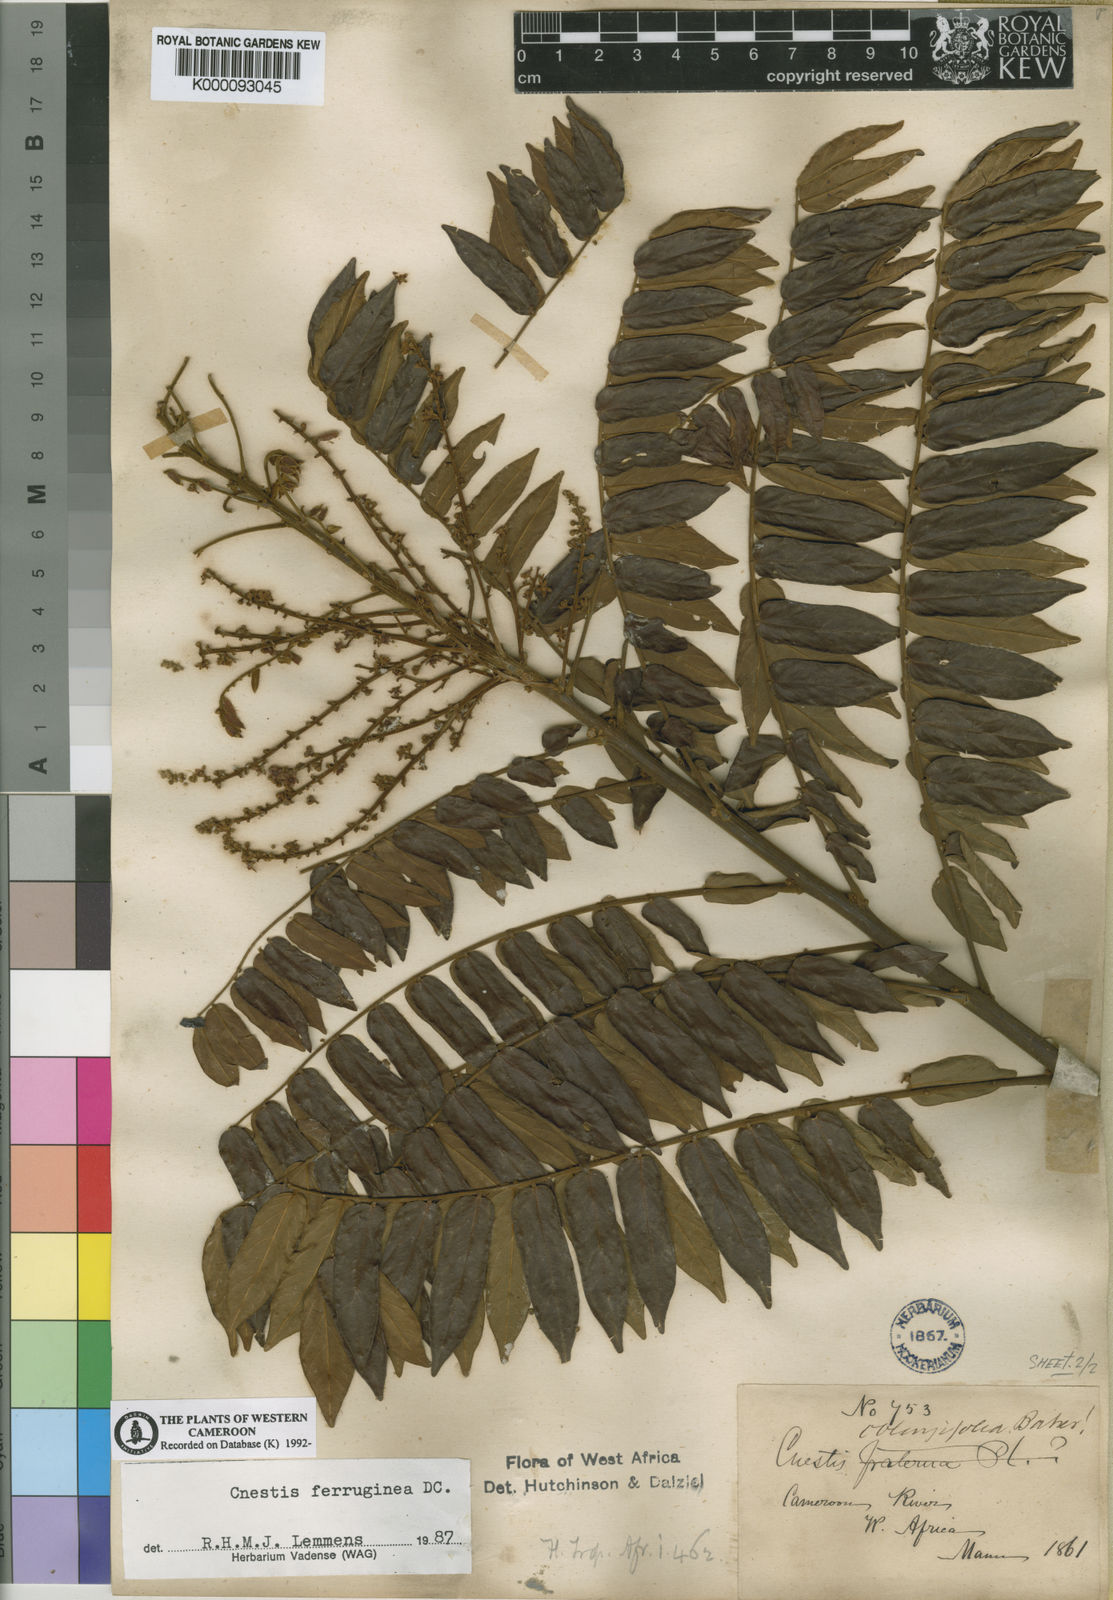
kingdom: Plantae
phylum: Tracheophyta
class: Magnoliopsida
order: Oxalidales
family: Connaraceae
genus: Cnestis
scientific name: Cnestis ferruginea
